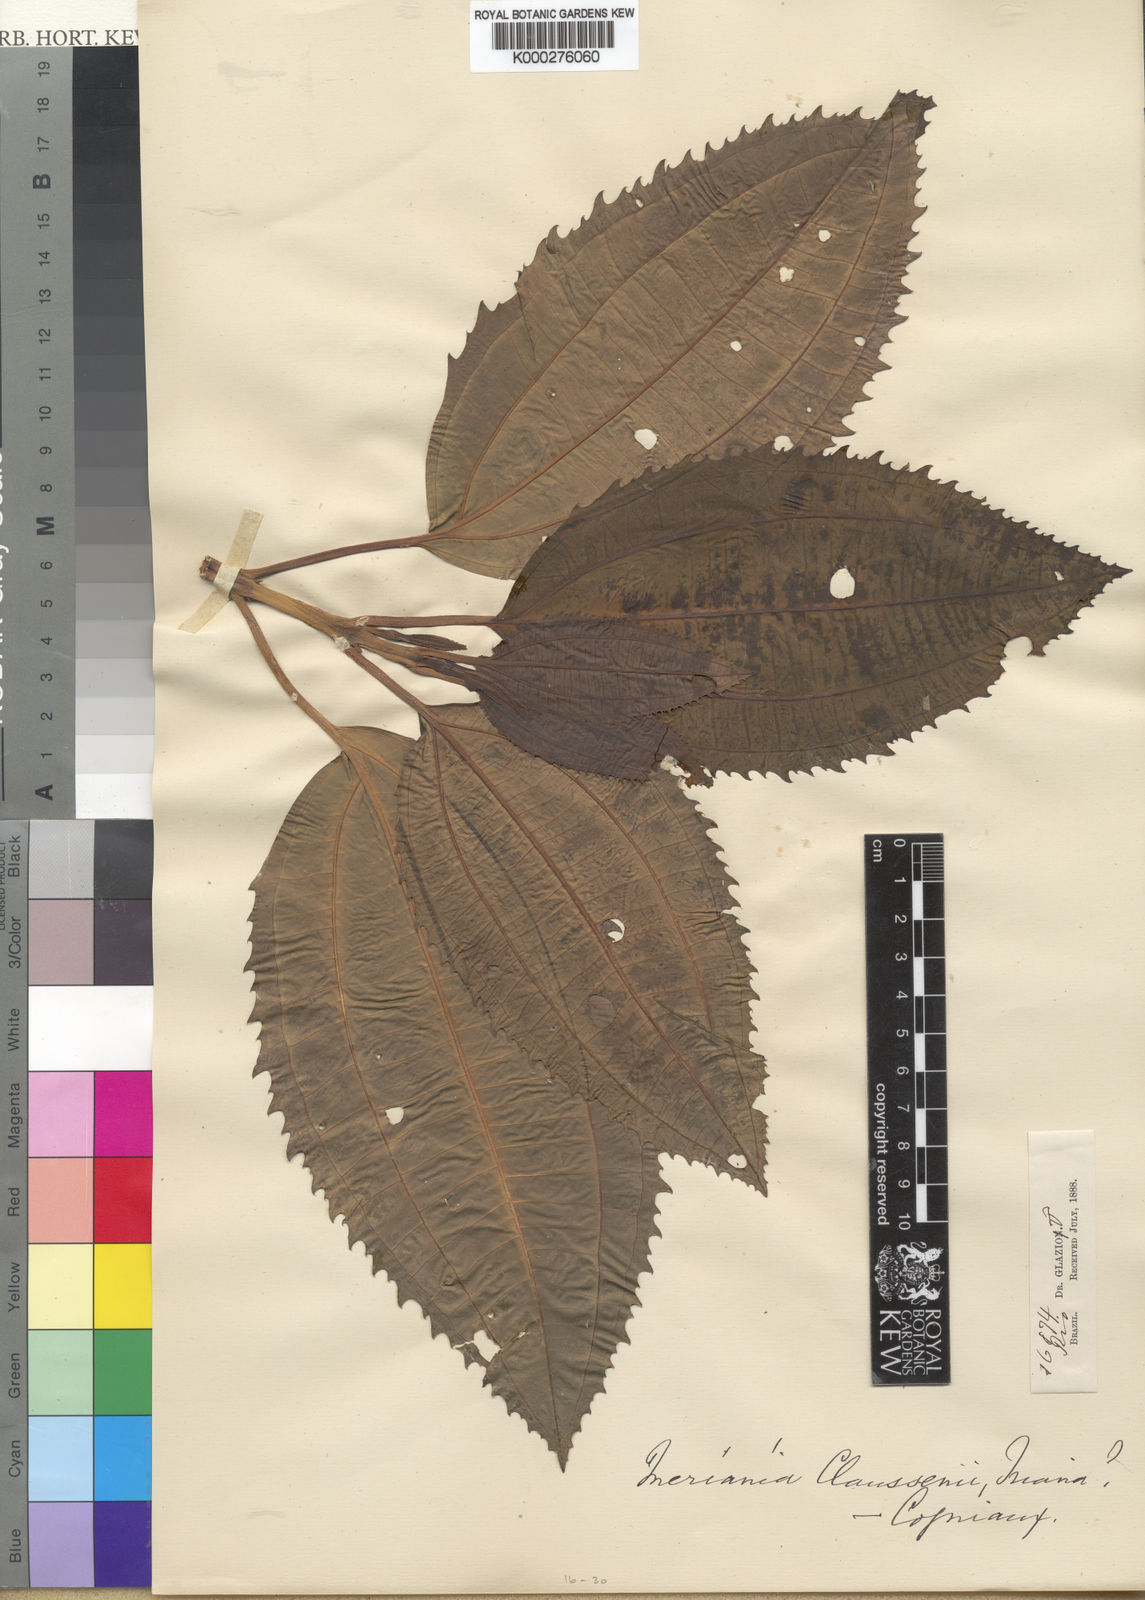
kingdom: Plantae
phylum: Tracheophyta
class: Magnoliopsida
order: Myrtales
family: Melastomataceae
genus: Meriania
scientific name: Meriania claussenii
